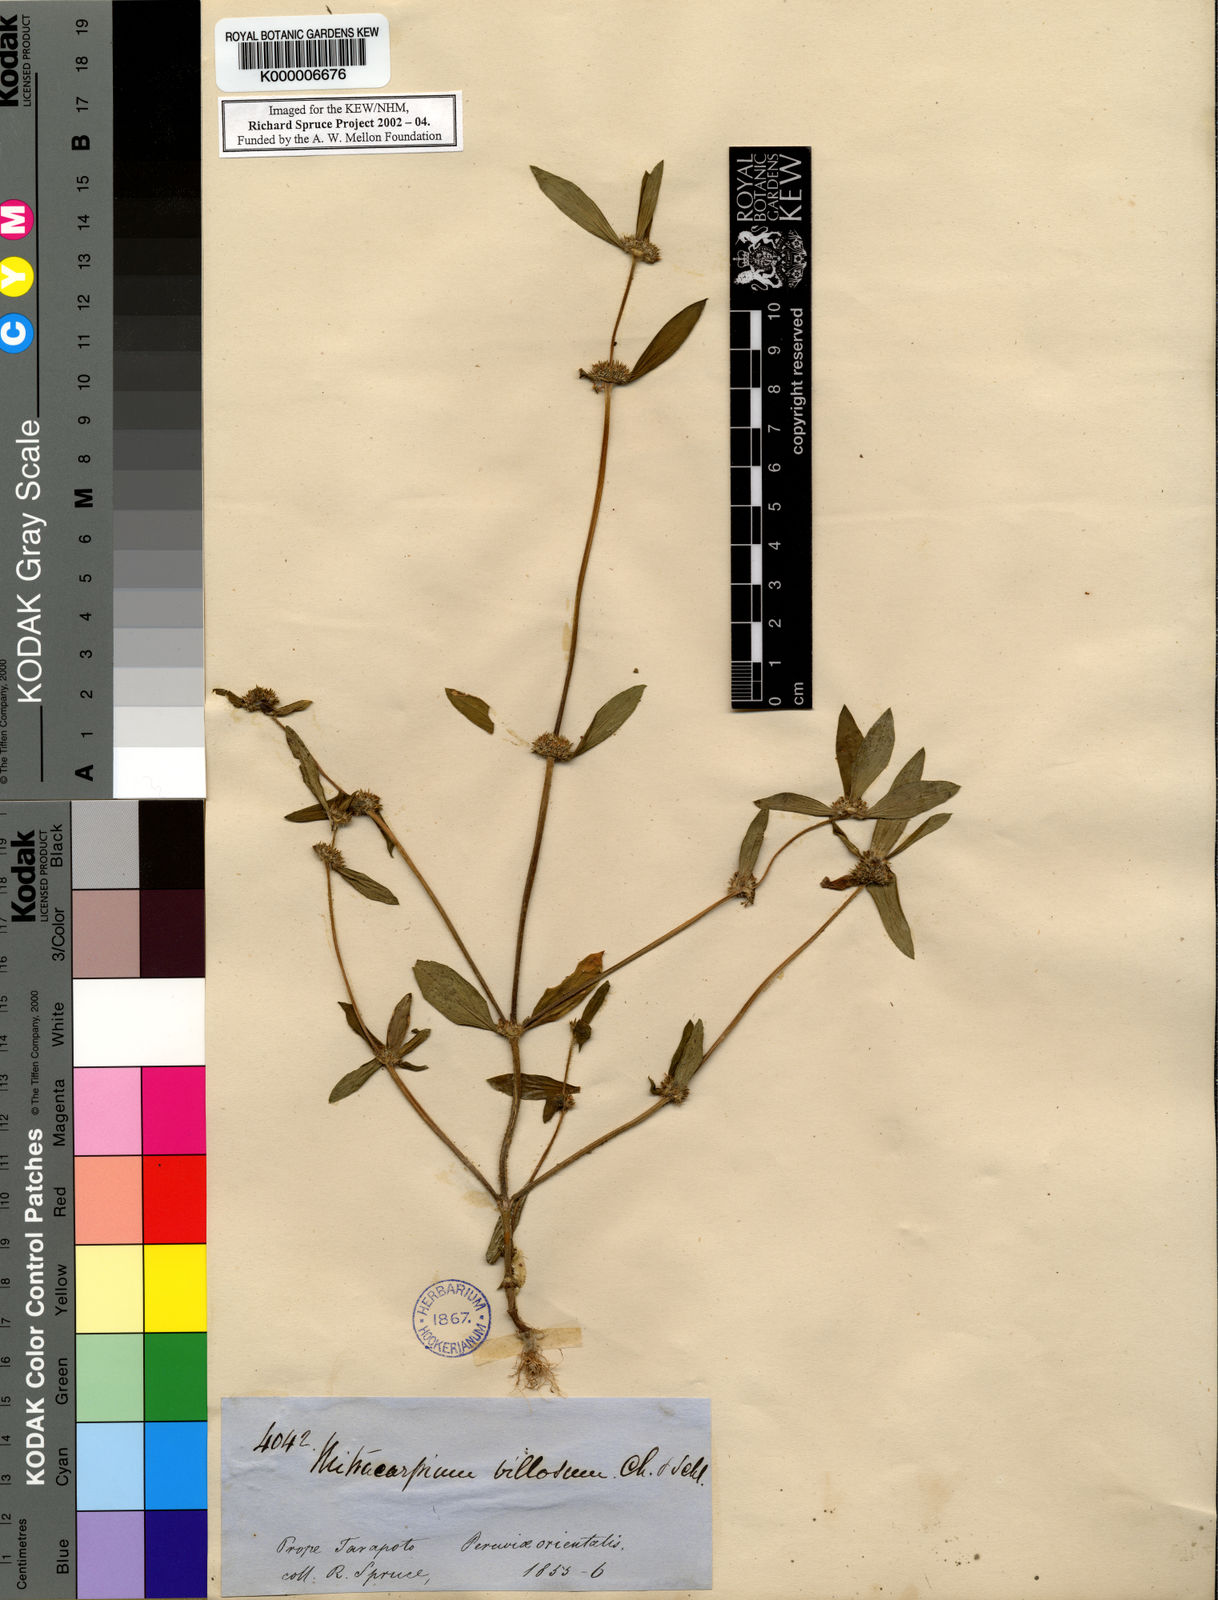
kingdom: Plantae
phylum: Tracheophyta
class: Magnoliopsida
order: Gentianales
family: Rubiaceae
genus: Mitracarpus
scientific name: Mitracarpus hirtus
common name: Tropical girdlepod
